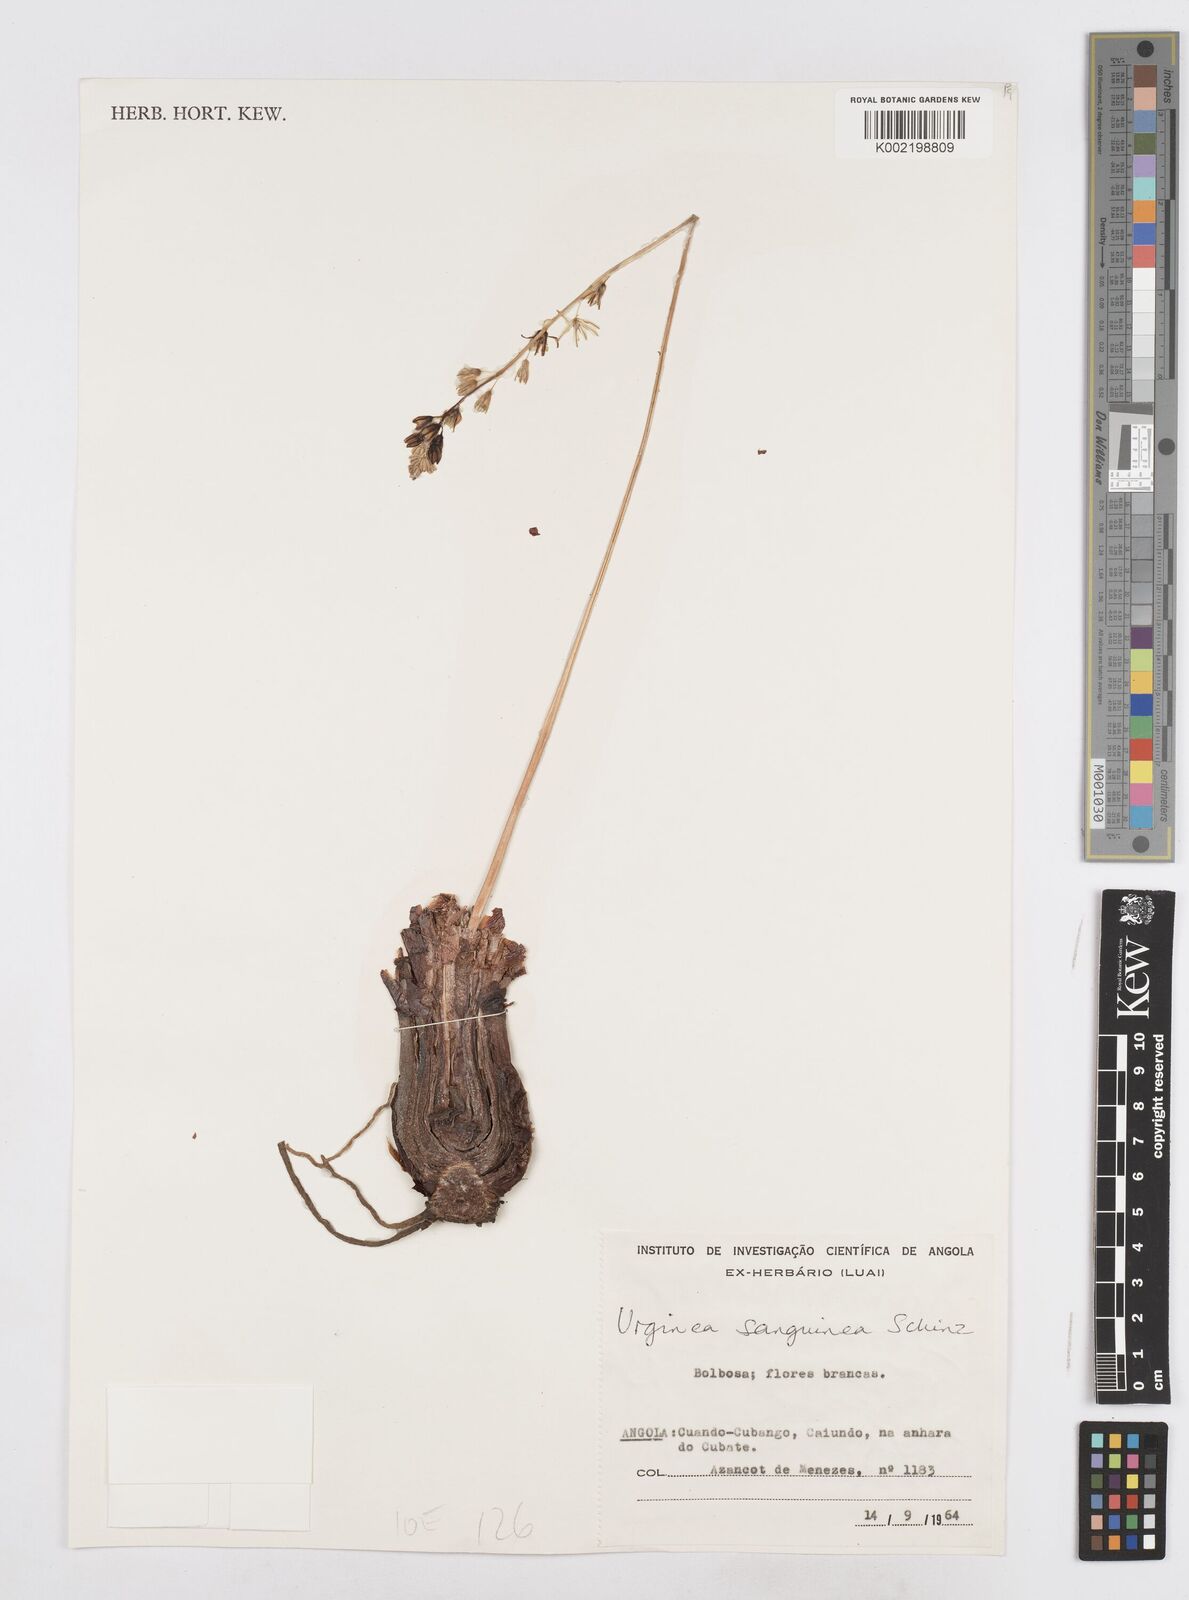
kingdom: Plantae
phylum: Tracheophyta
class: Liliopsida
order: Asparagales
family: Asparagaceae
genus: Drimia
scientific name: Drimia sanguinea
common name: Transvaal slangkop
